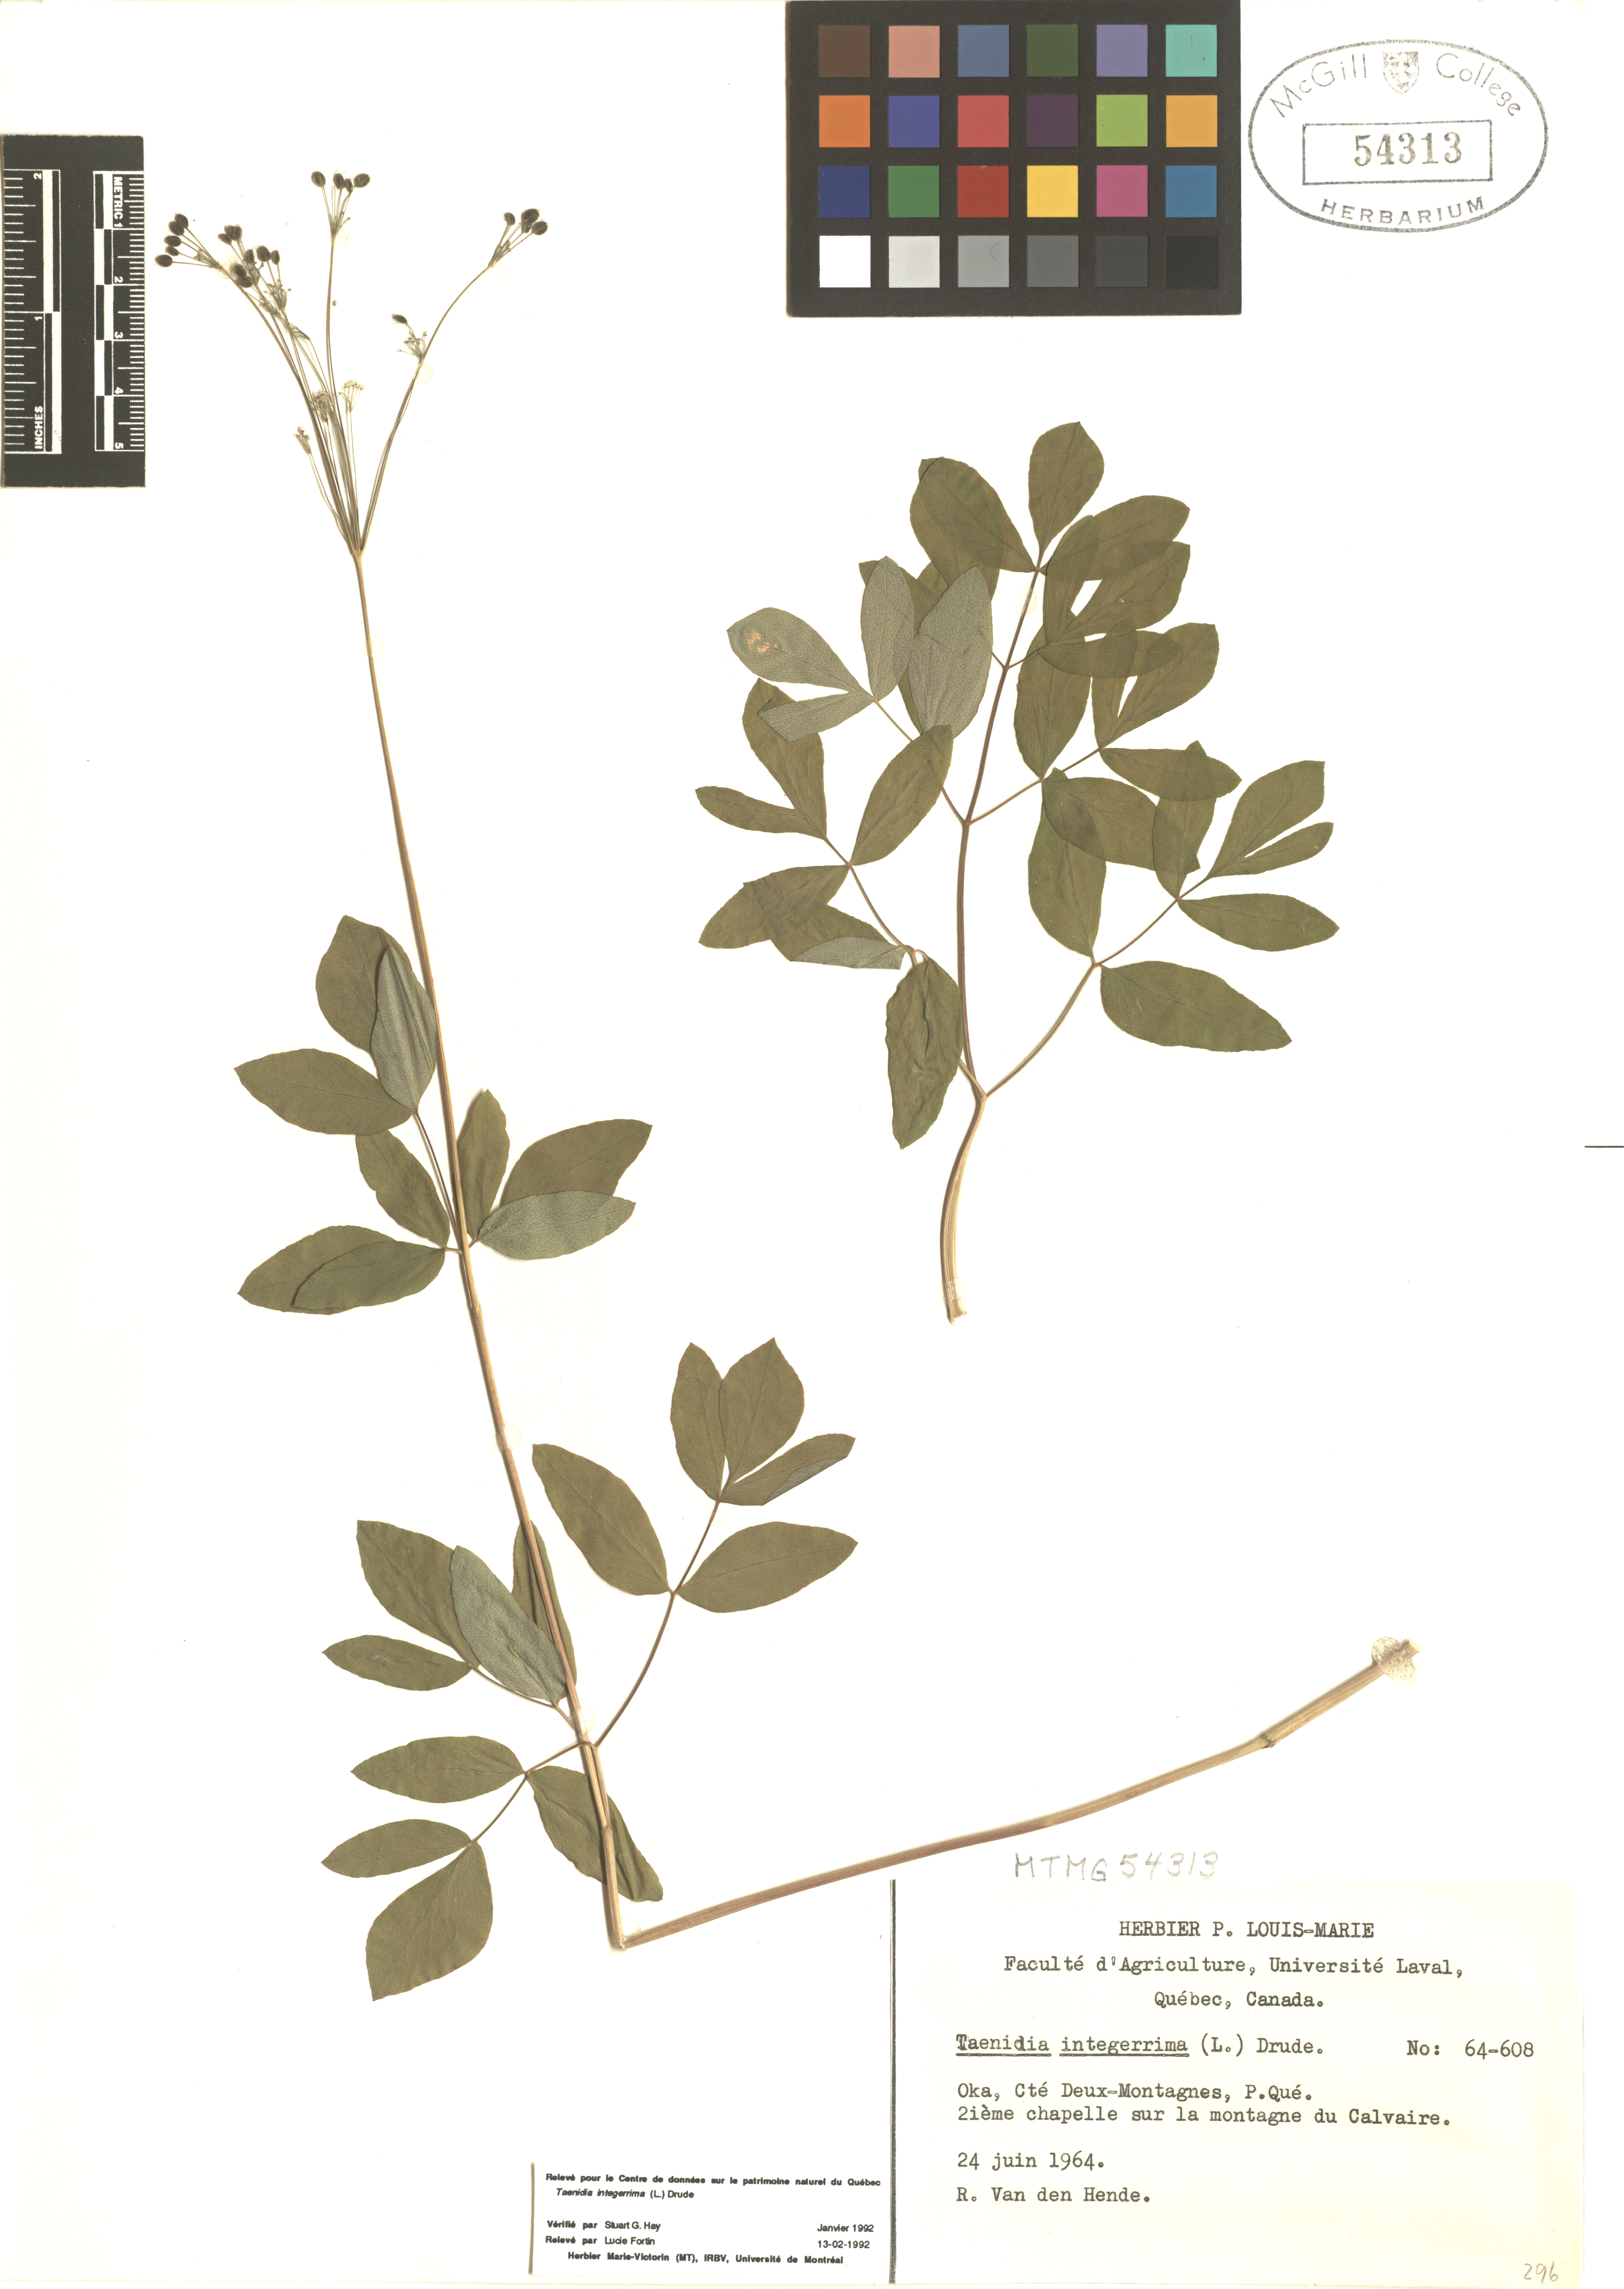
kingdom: Plantae
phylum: Tracheophyta
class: Magnoliopsida
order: Apiales
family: Apiaceae
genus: Taenidia
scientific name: Taenidia integerrima
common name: Golden alexander
